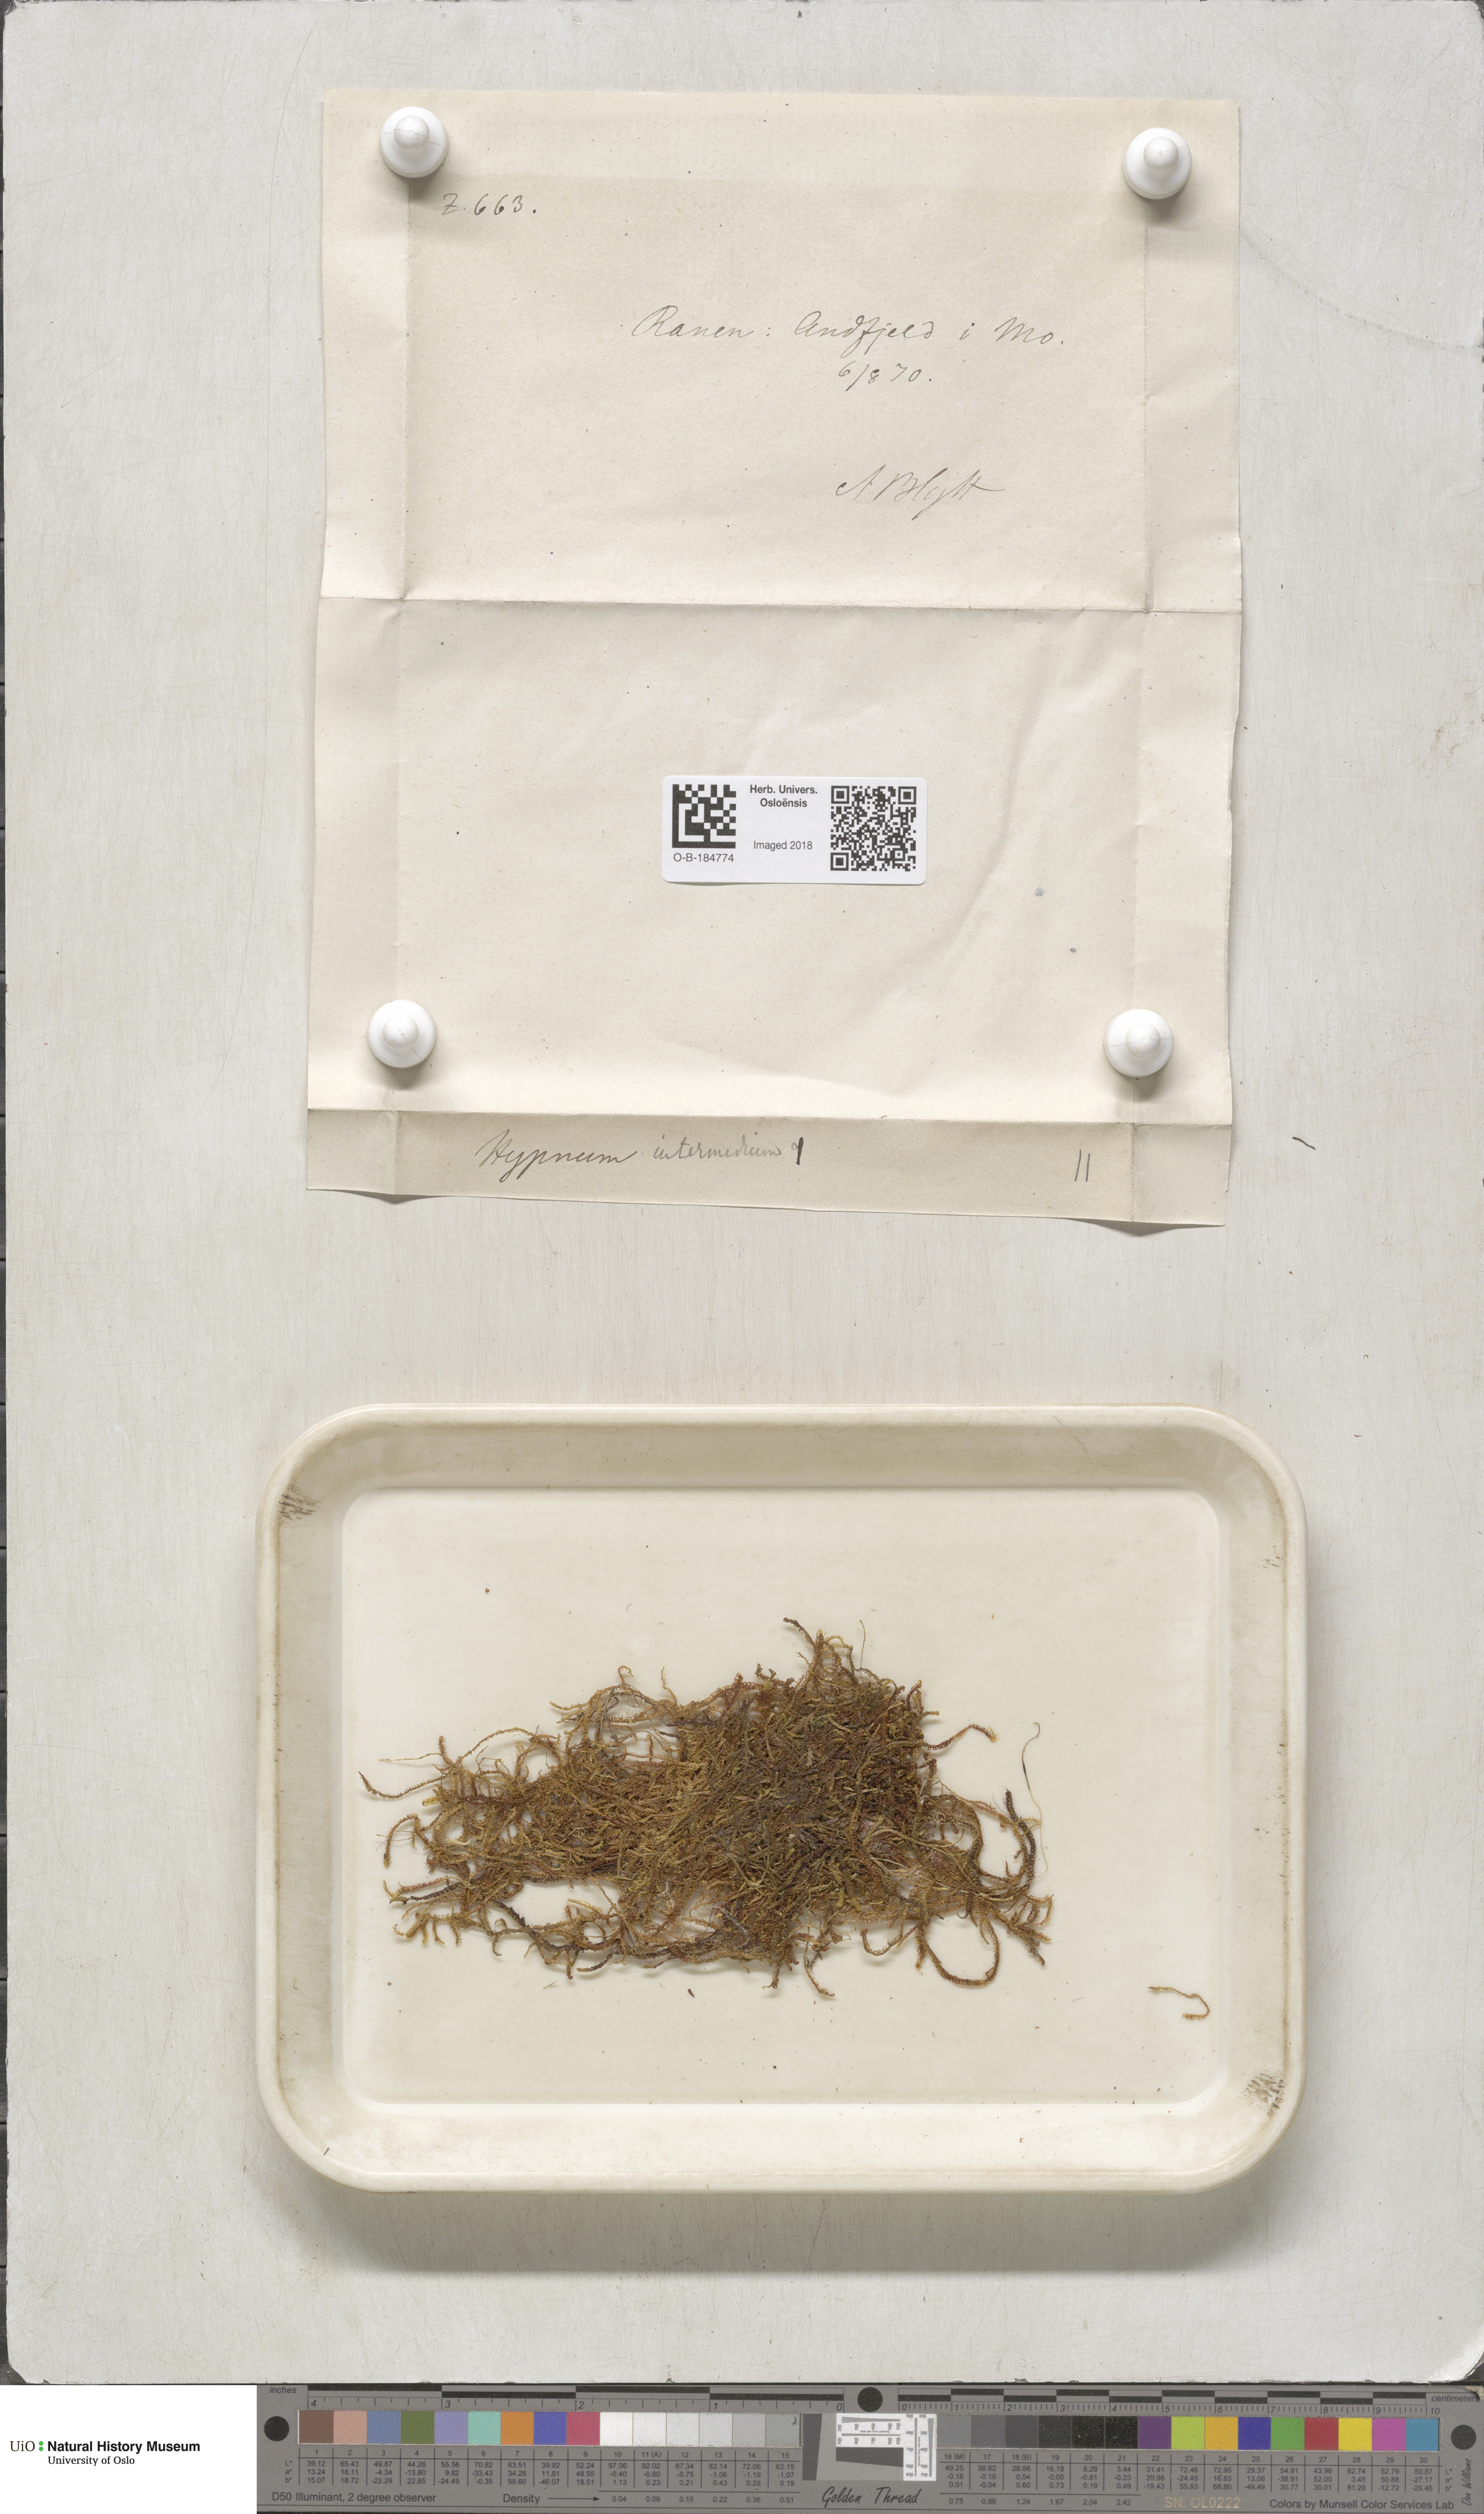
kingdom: Plantae
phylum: Bryophyta
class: Bryopsida
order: Hypnales
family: Scorpidiaceae
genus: Scorpidium
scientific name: Scorpidium cossonii
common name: Cosson's hook moss
